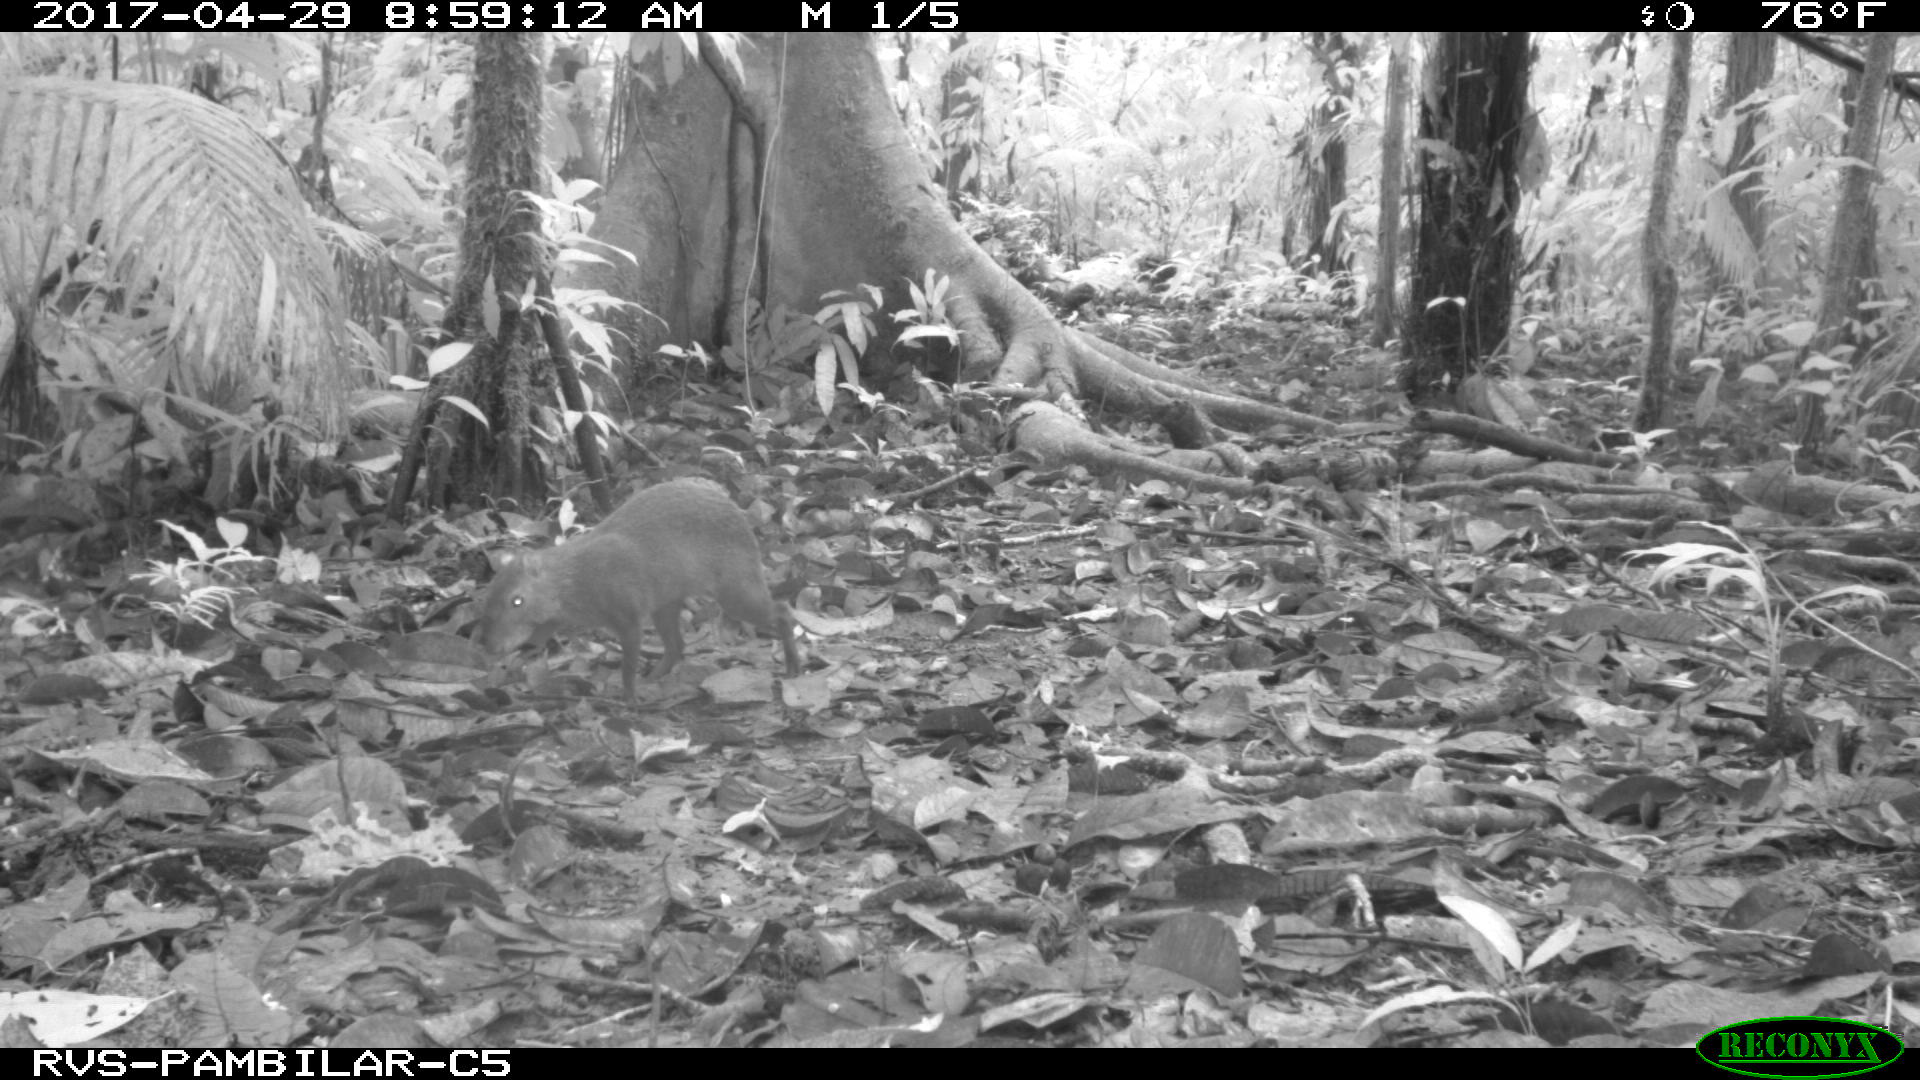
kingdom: Animalia
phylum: Chordata
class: Mammalia
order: Rodentia
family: Dasyproctidae
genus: Dasyprocta
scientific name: Dasyprocta punctata
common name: Central american agouti
